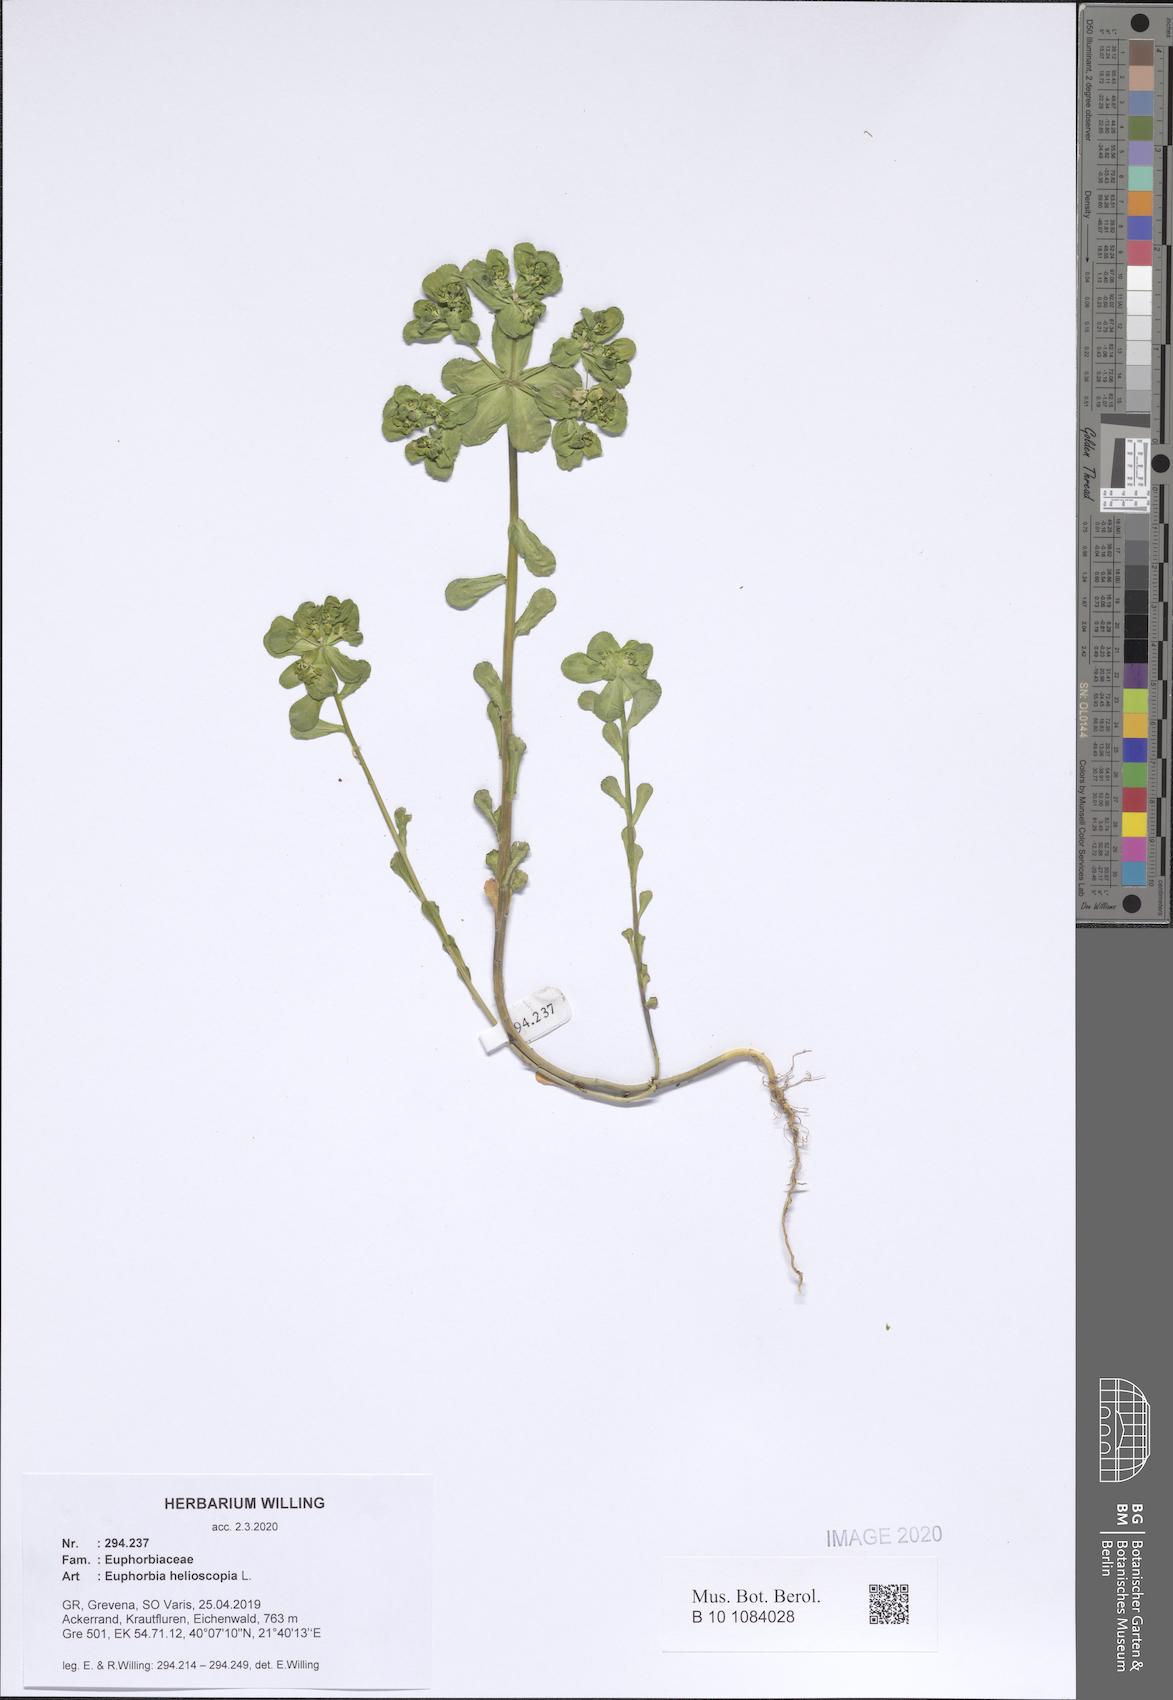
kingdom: Plantae
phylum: Tracheophyta
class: Magnoliopsida
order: Malpighiales
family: Euphorbiaceae
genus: Euphorbia
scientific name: Euphorbia helioscopia
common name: Sun spurge
